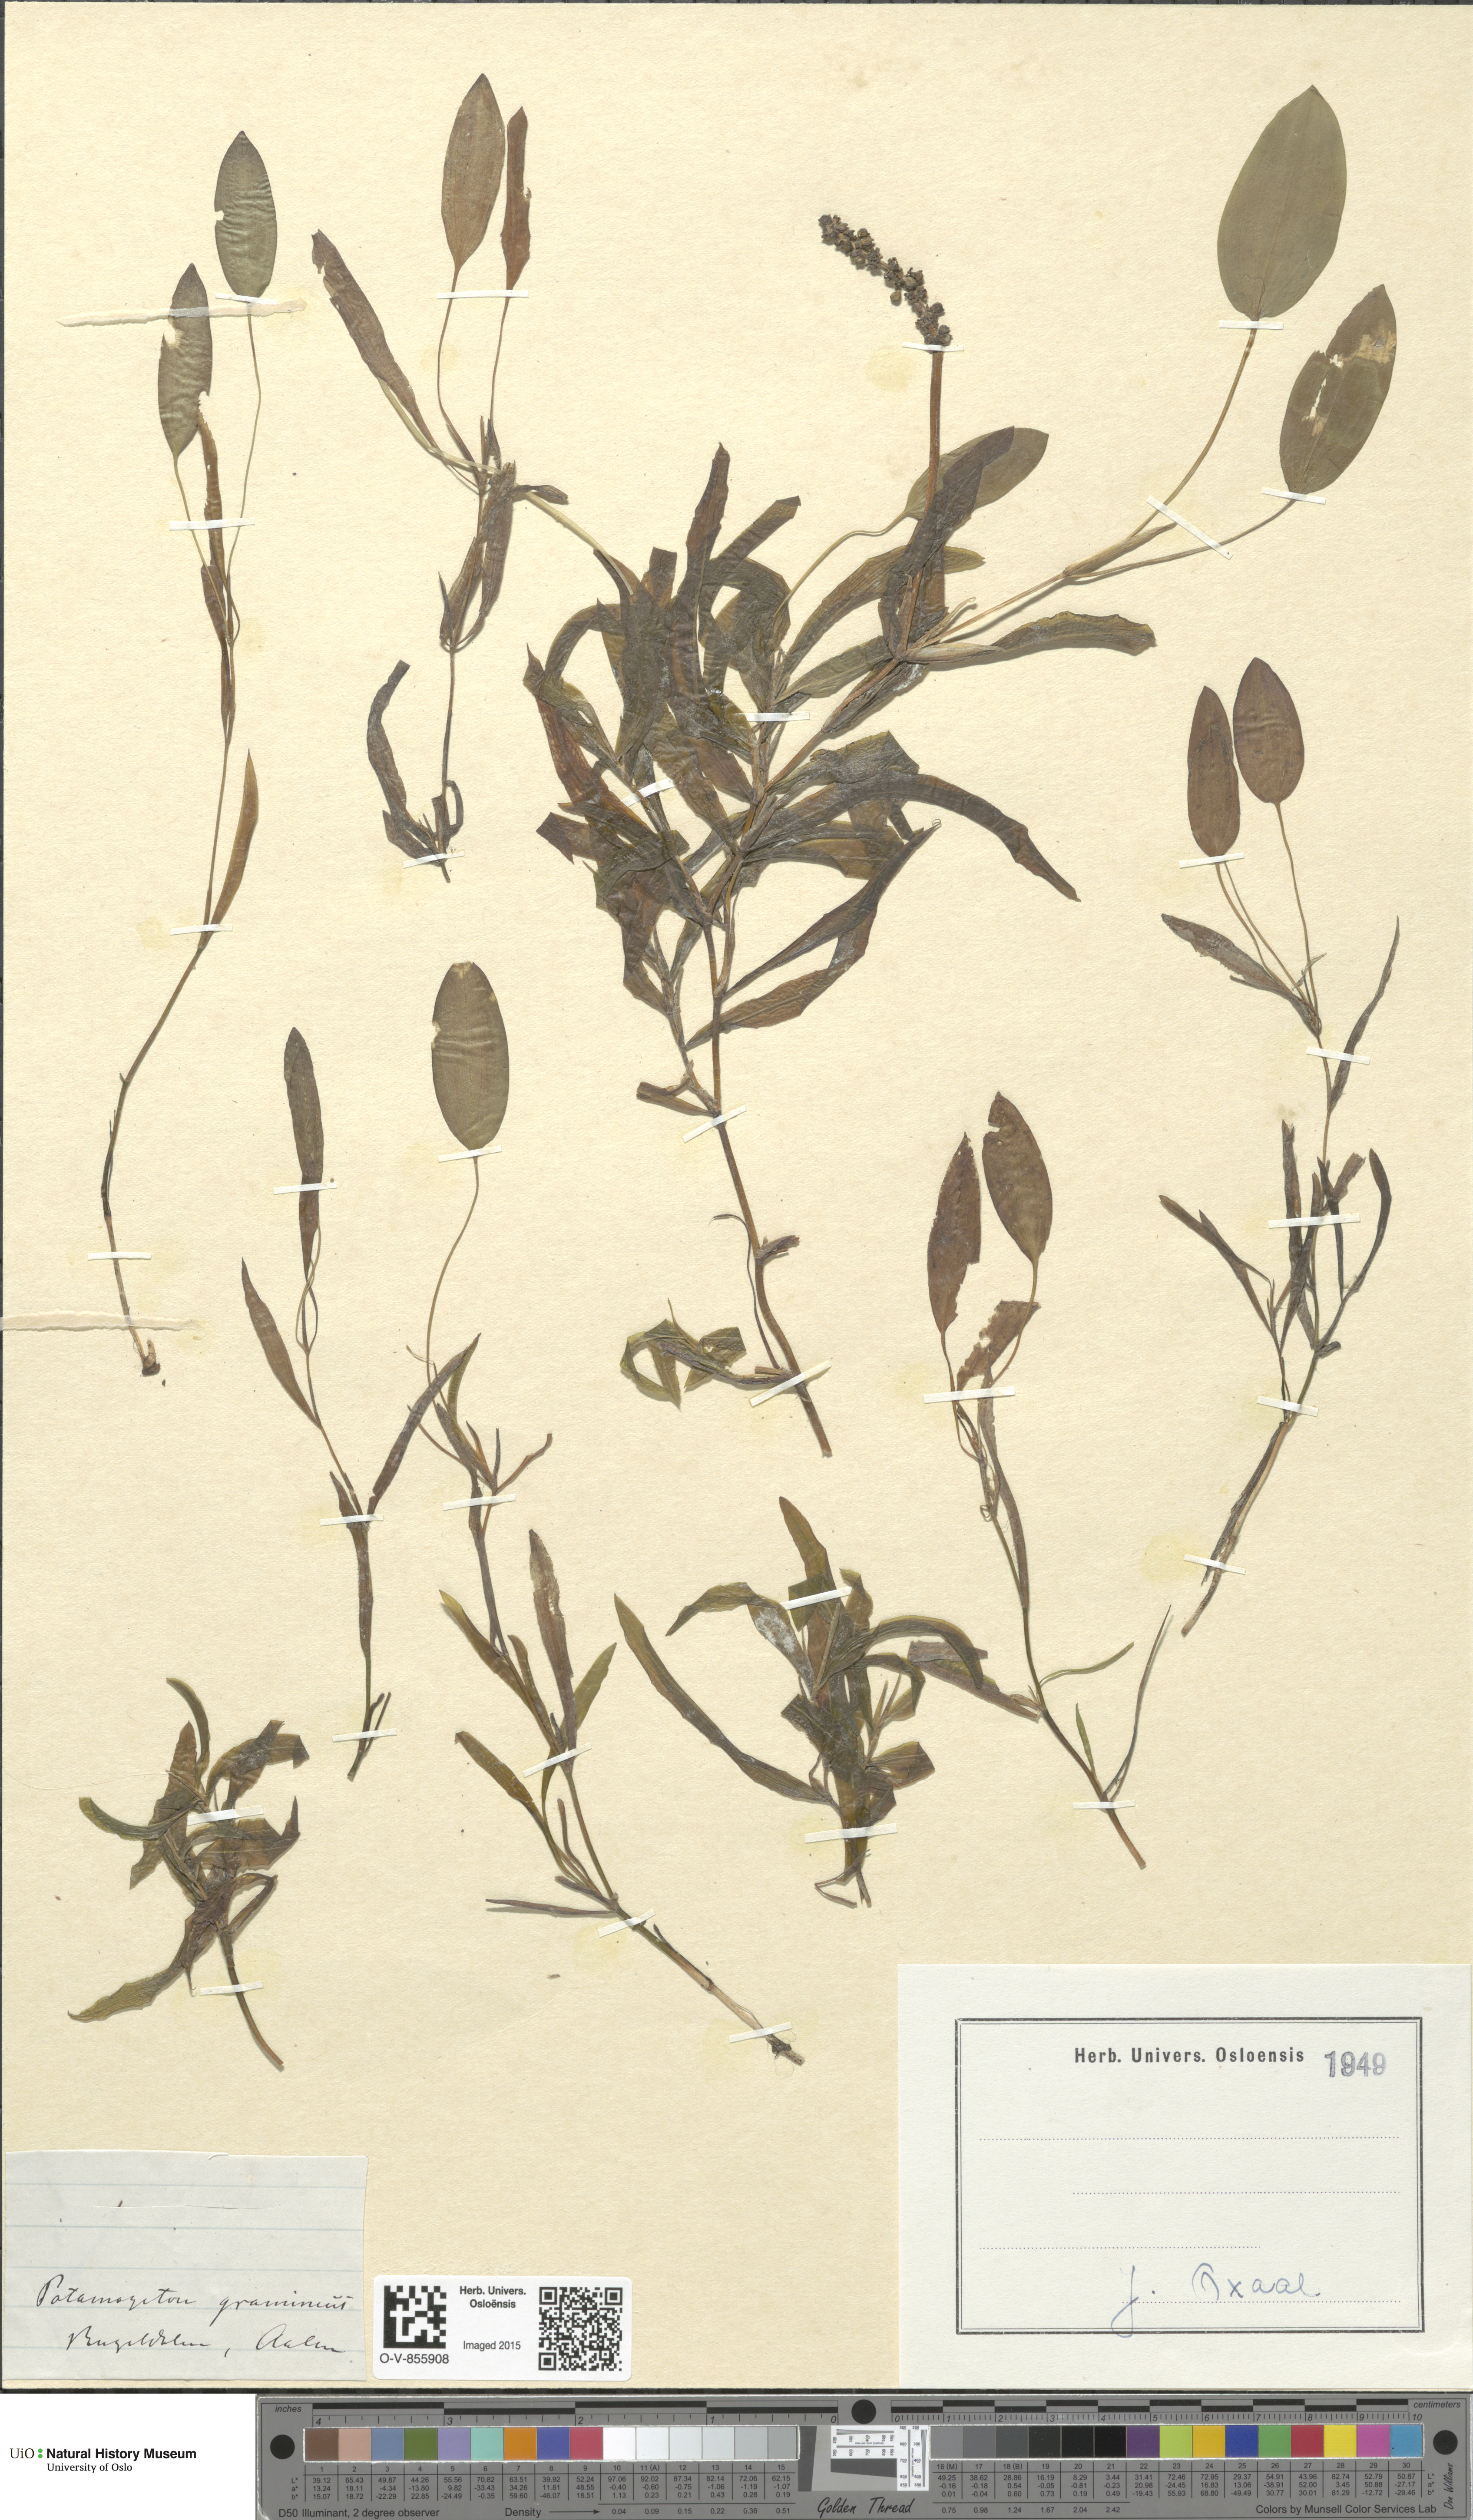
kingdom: Plantae
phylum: Tracheophyta
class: Liliopsida
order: Alismatales
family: Potamogetonaceae
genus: Potamogeton
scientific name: Potamogeton gramineus
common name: Various-leaved pondweed
